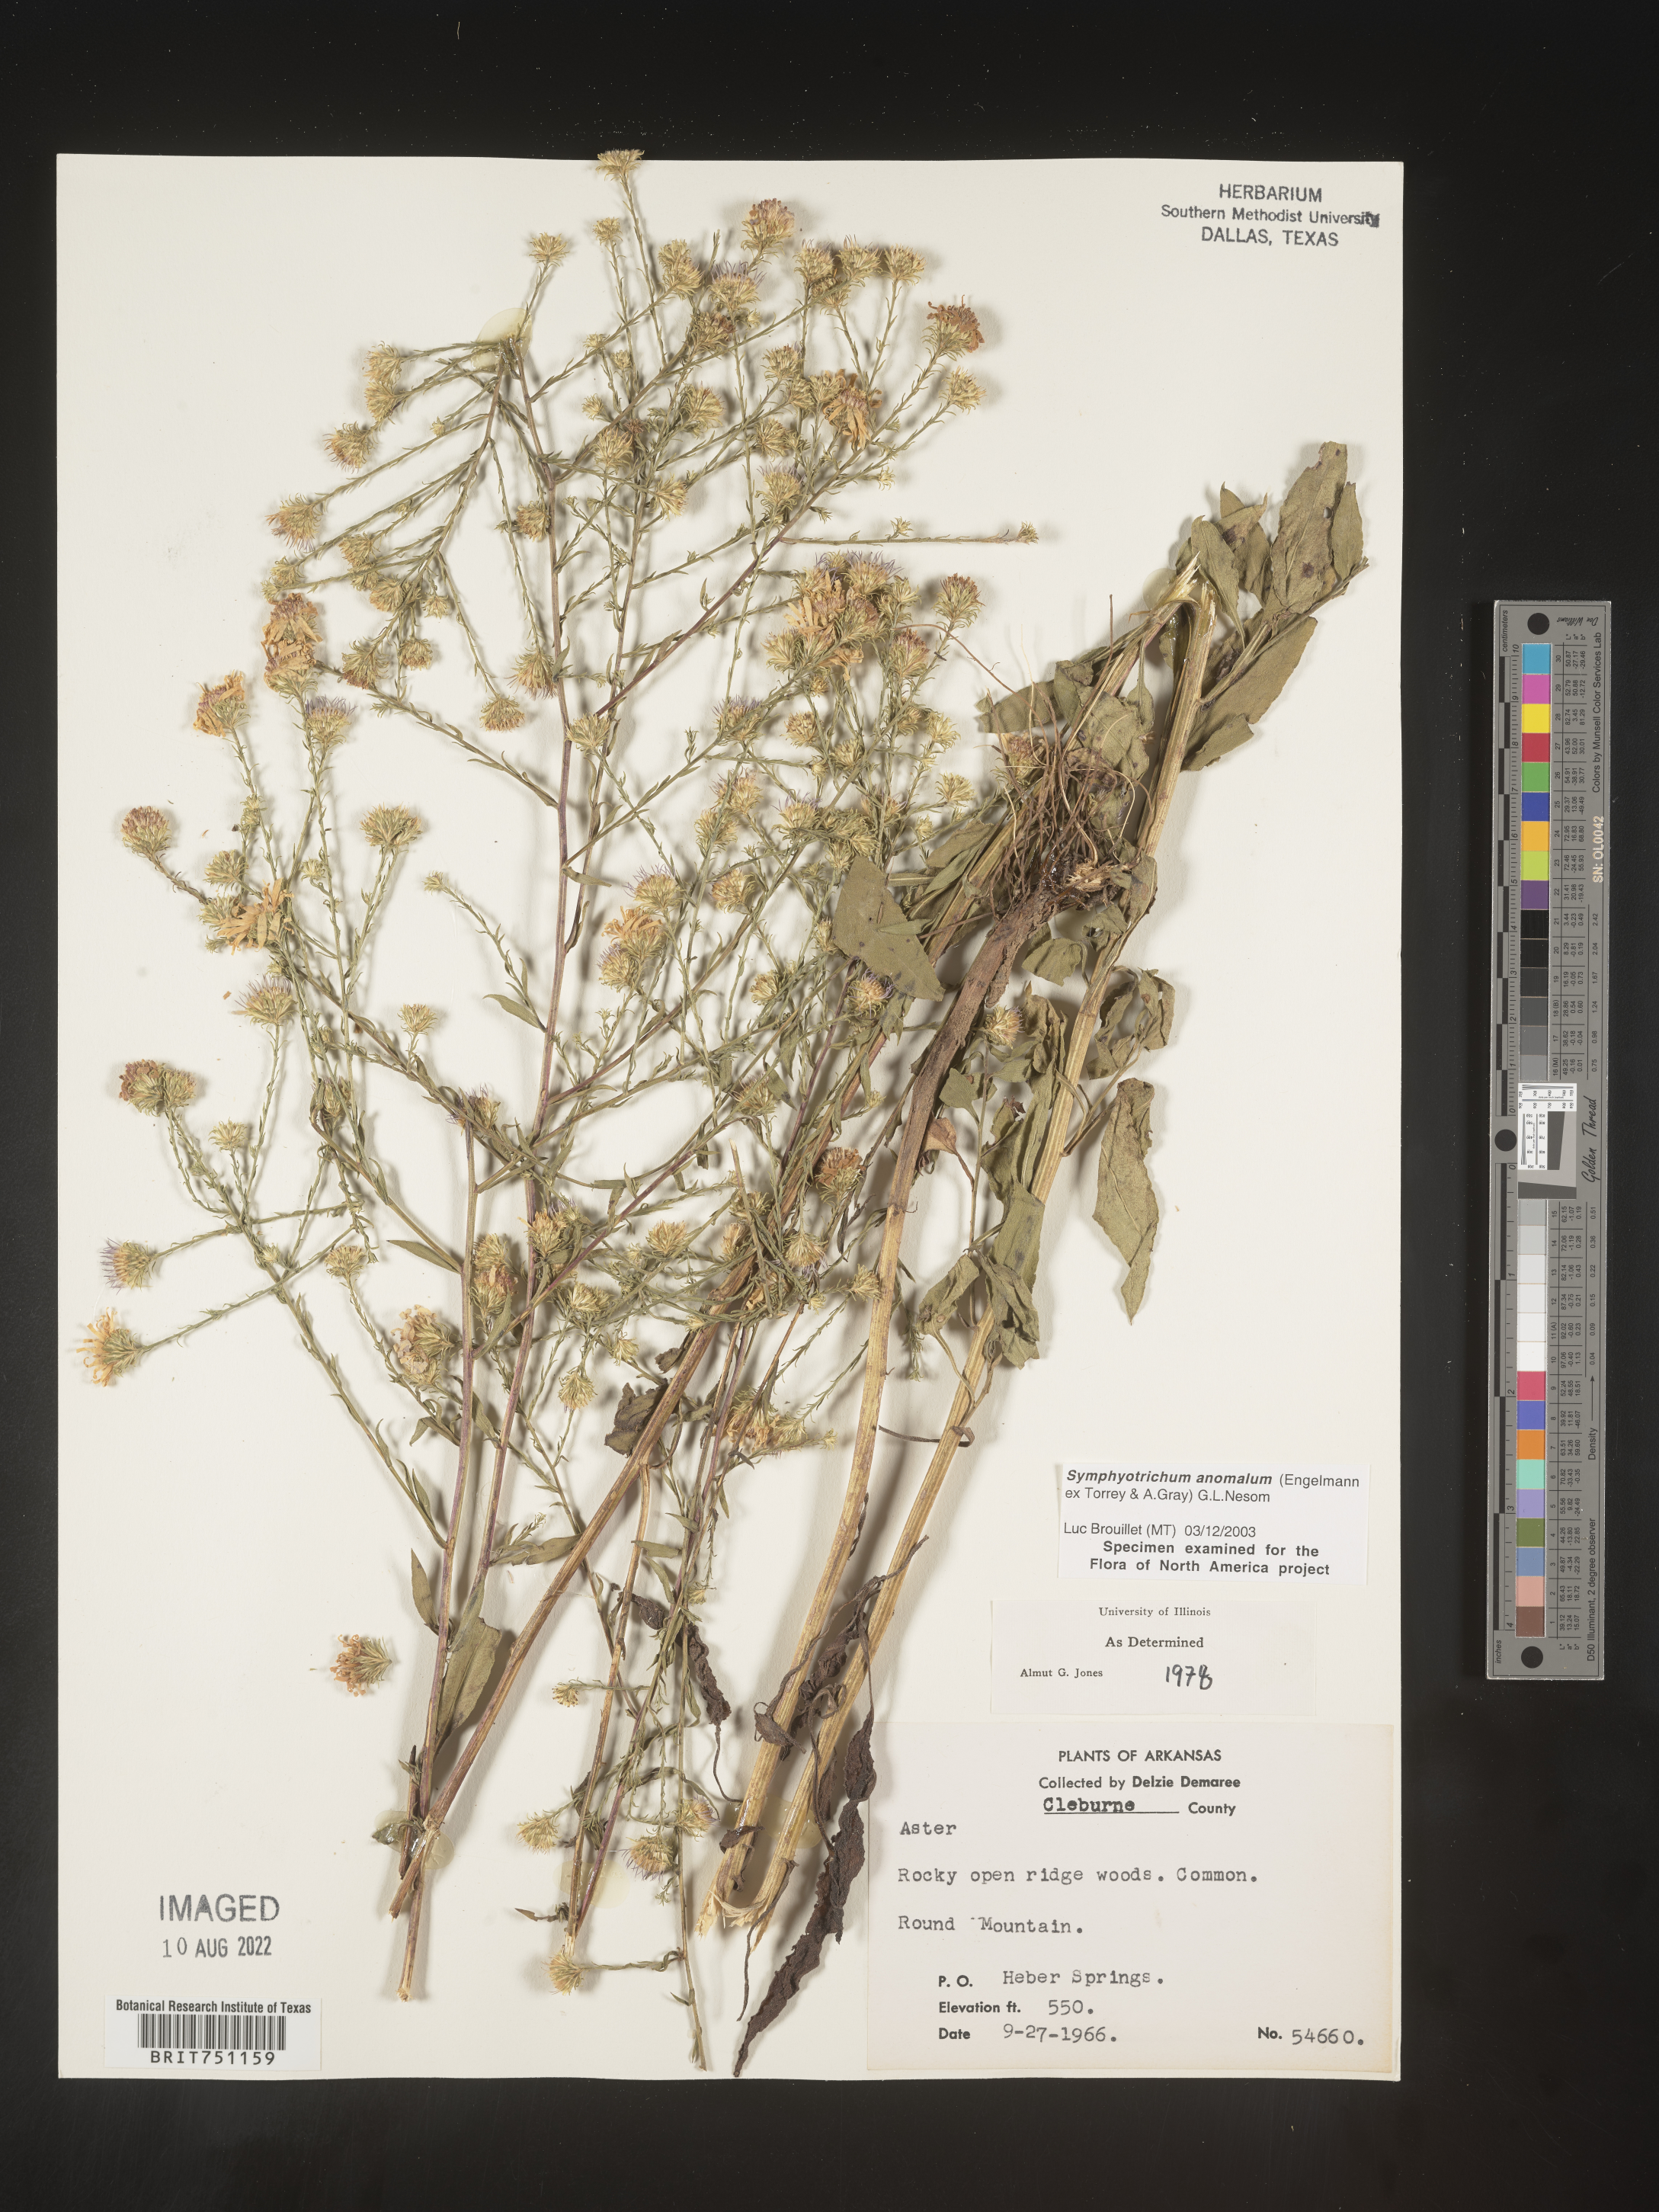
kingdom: Plantae
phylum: Tracheophyta
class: Magnoliopsida
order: Asterales
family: Asteraceae
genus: Symphyotrichum
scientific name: Symphyotrichum anomalum
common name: Many-ray aster
